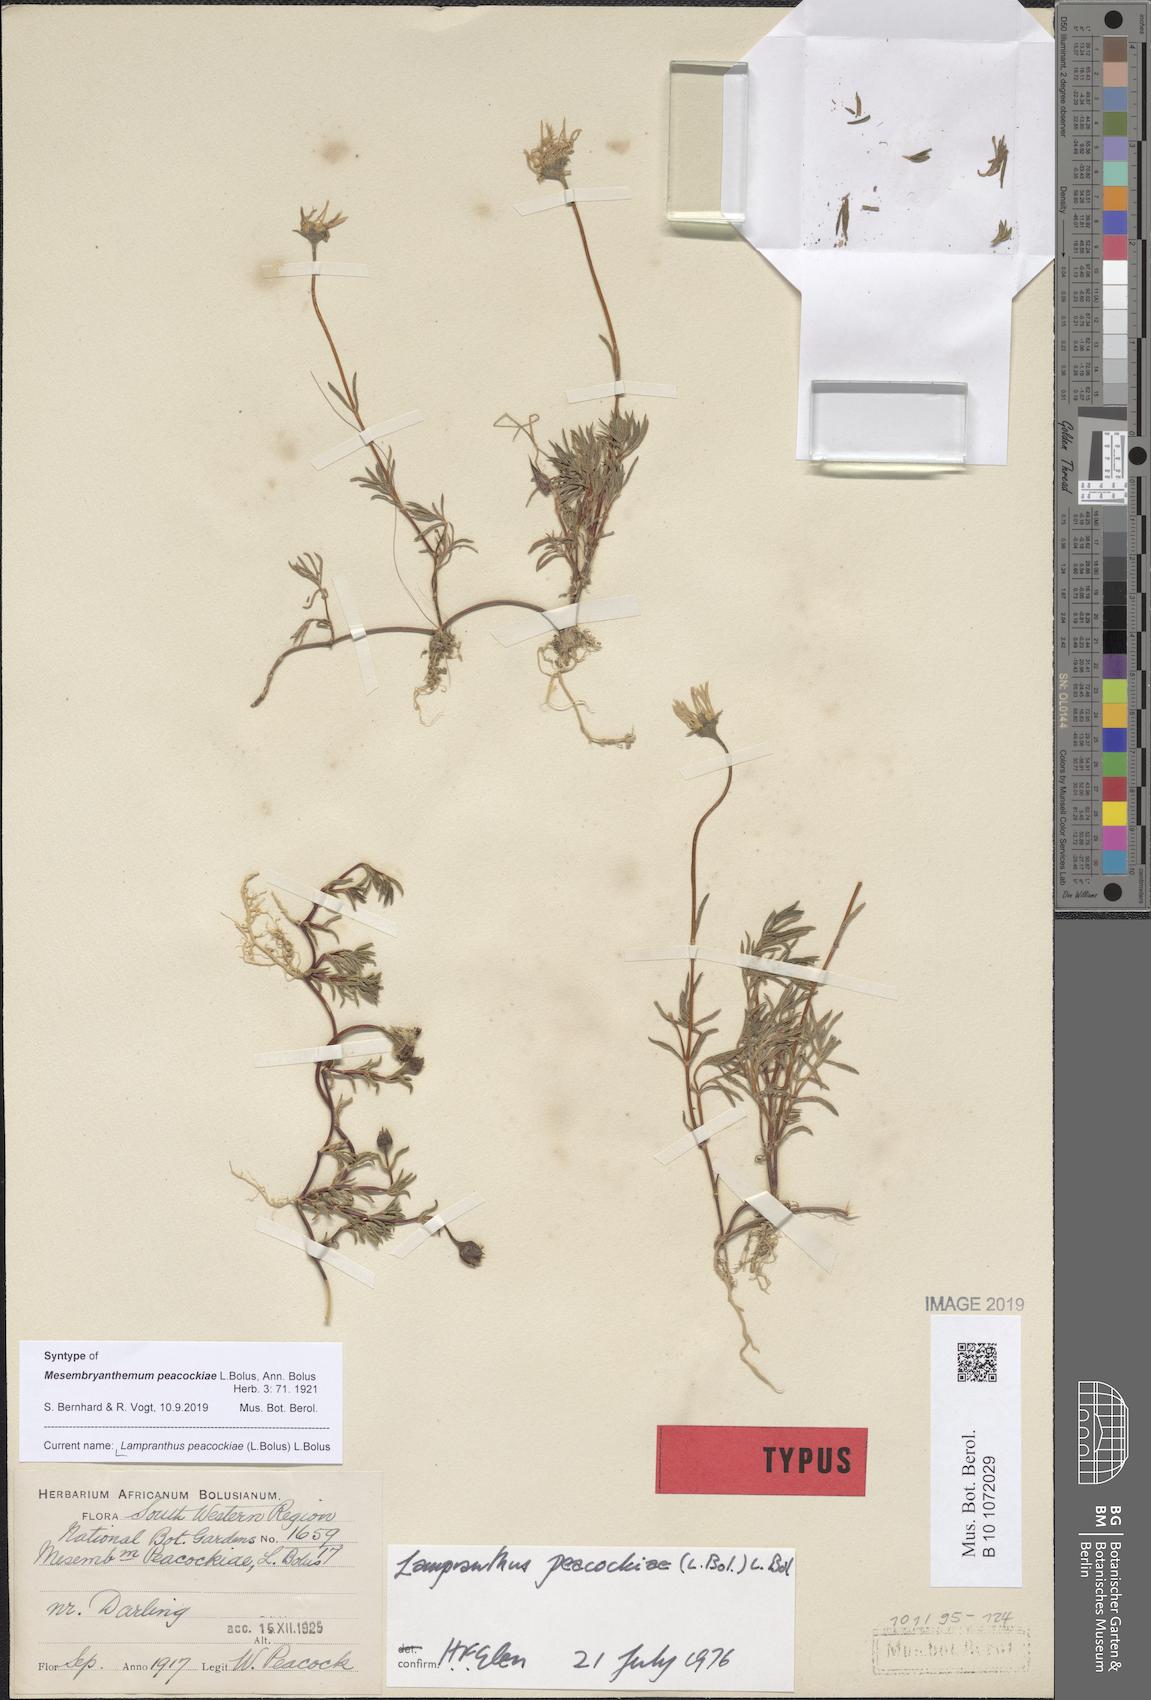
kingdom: Plantae
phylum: Tracheophyta
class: Magnoliopsida
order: Caryophyllales
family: Aizoaceae
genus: Lampranthus
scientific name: Lampranthus peacockiae
